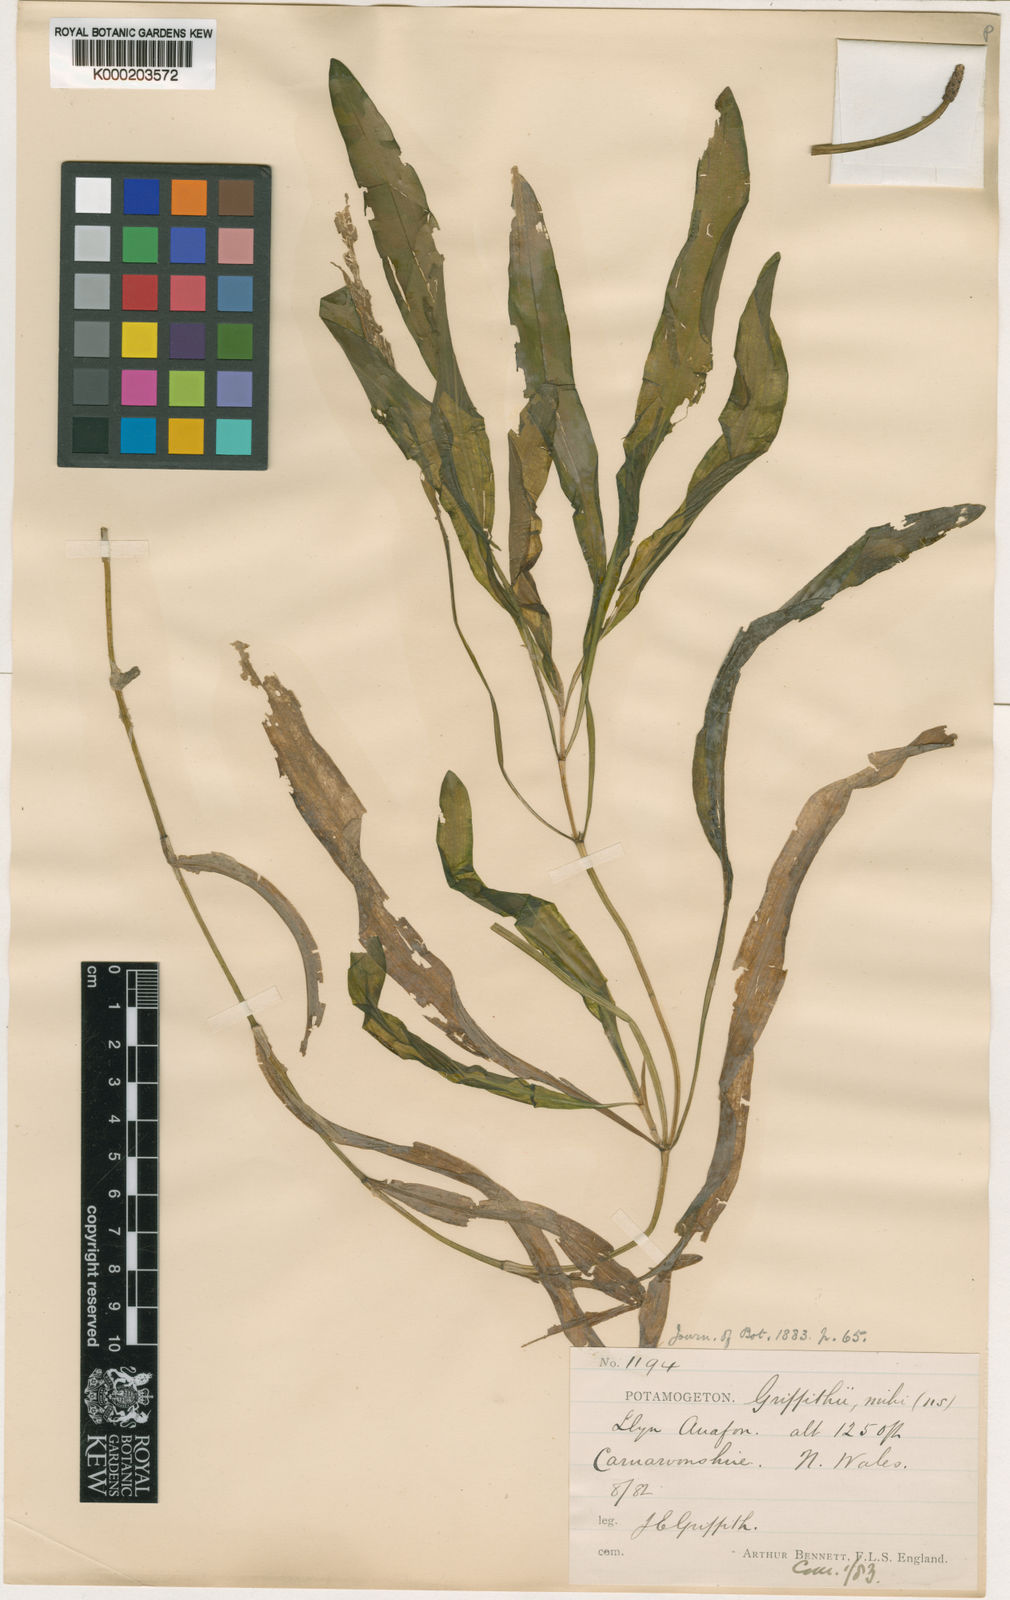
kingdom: Plantae
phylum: Tracheophyta
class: Liliopsida
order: Alismatales
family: Potamogetonaceae
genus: Potamogeton
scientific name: Potamogeton
